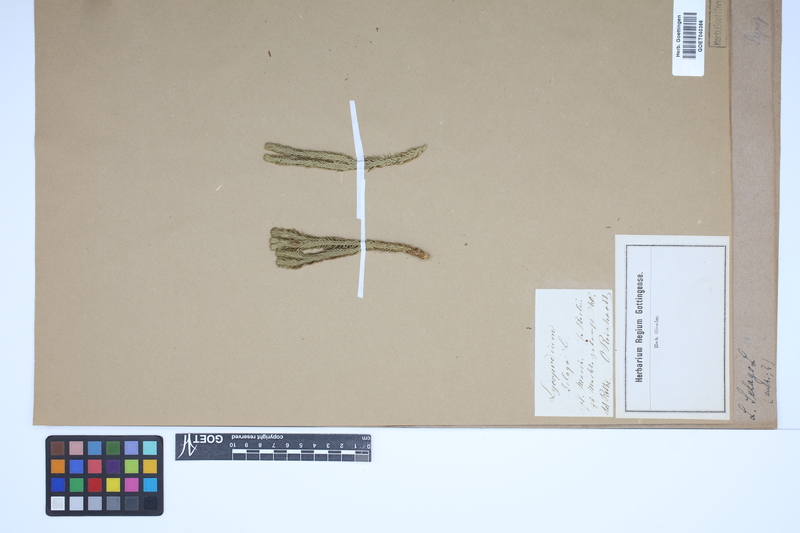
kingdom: Plantae
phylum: Tracheophyta
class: Lycopodiopsida
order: Lycopodiales
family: Lycopodiaceae
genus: Huperzia
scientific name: Huperzia selago
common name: Northern firmoss
